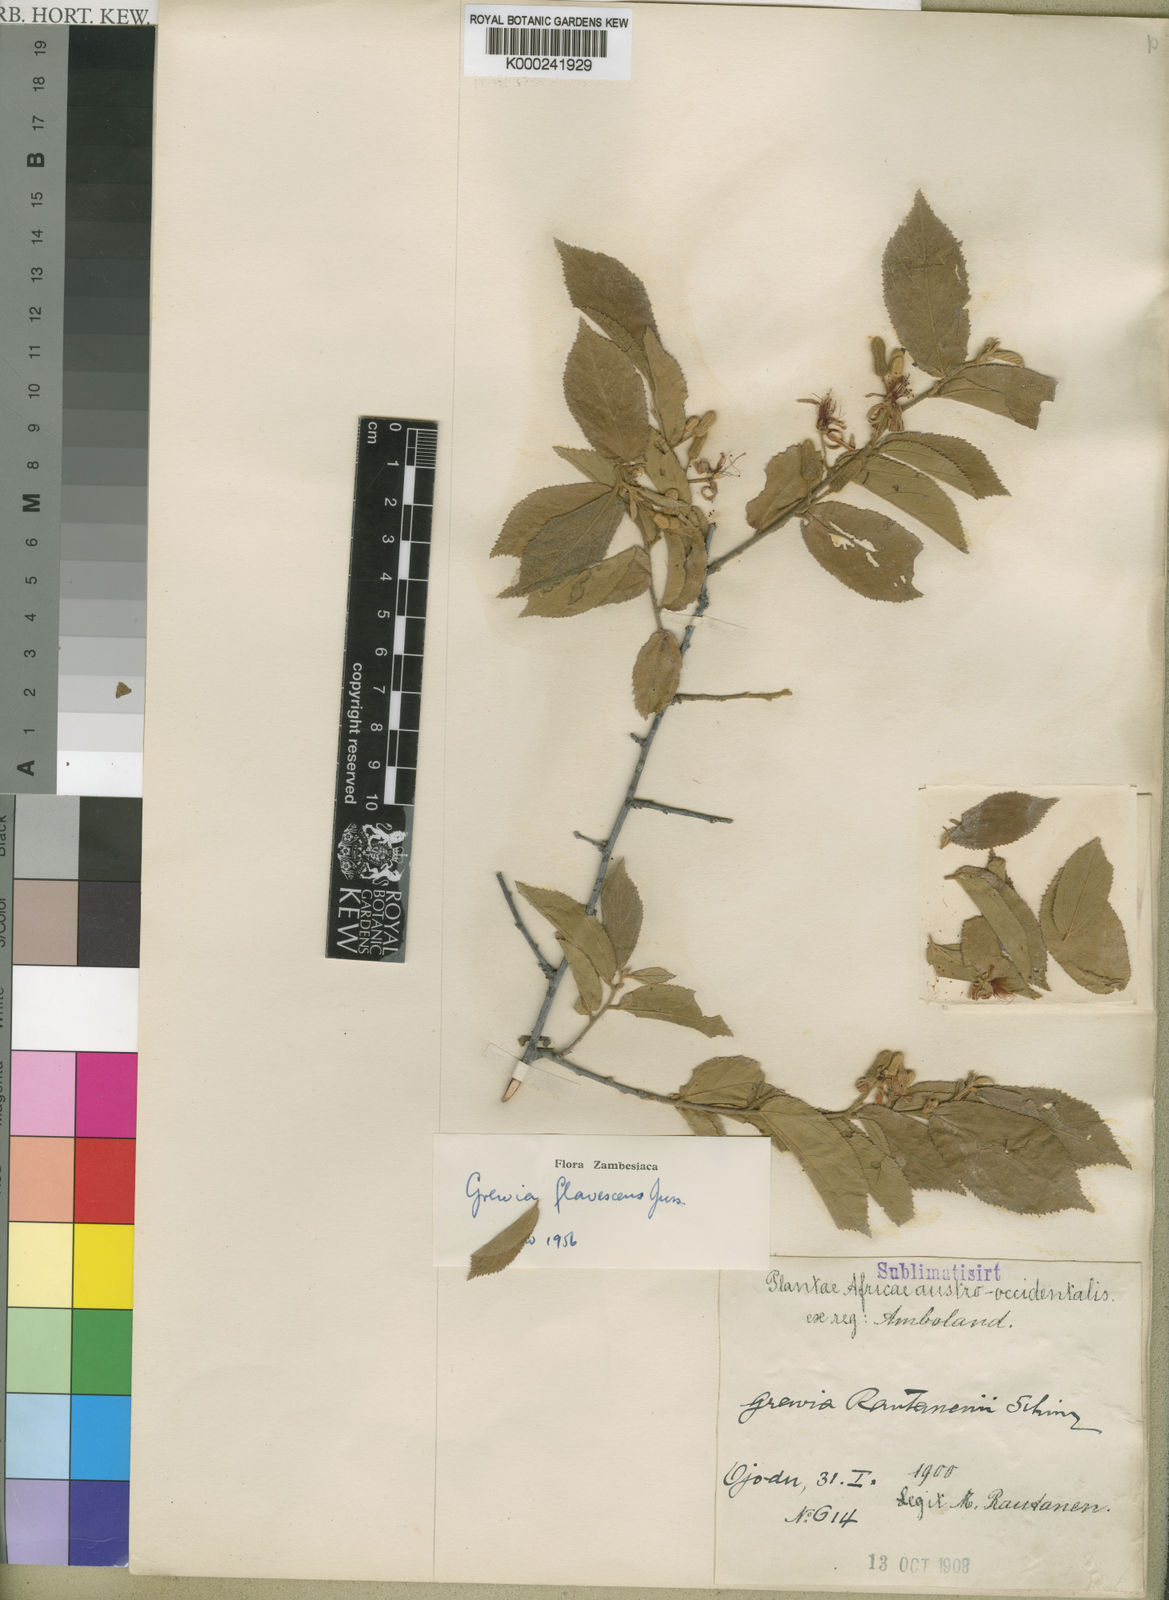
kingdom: Plantae
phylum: Tracheophyta
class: Magnoliopsida
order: Malvales
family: Malvaceae
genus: Grewia
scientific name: Grewia flavescens
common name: Sandpaper raisin
